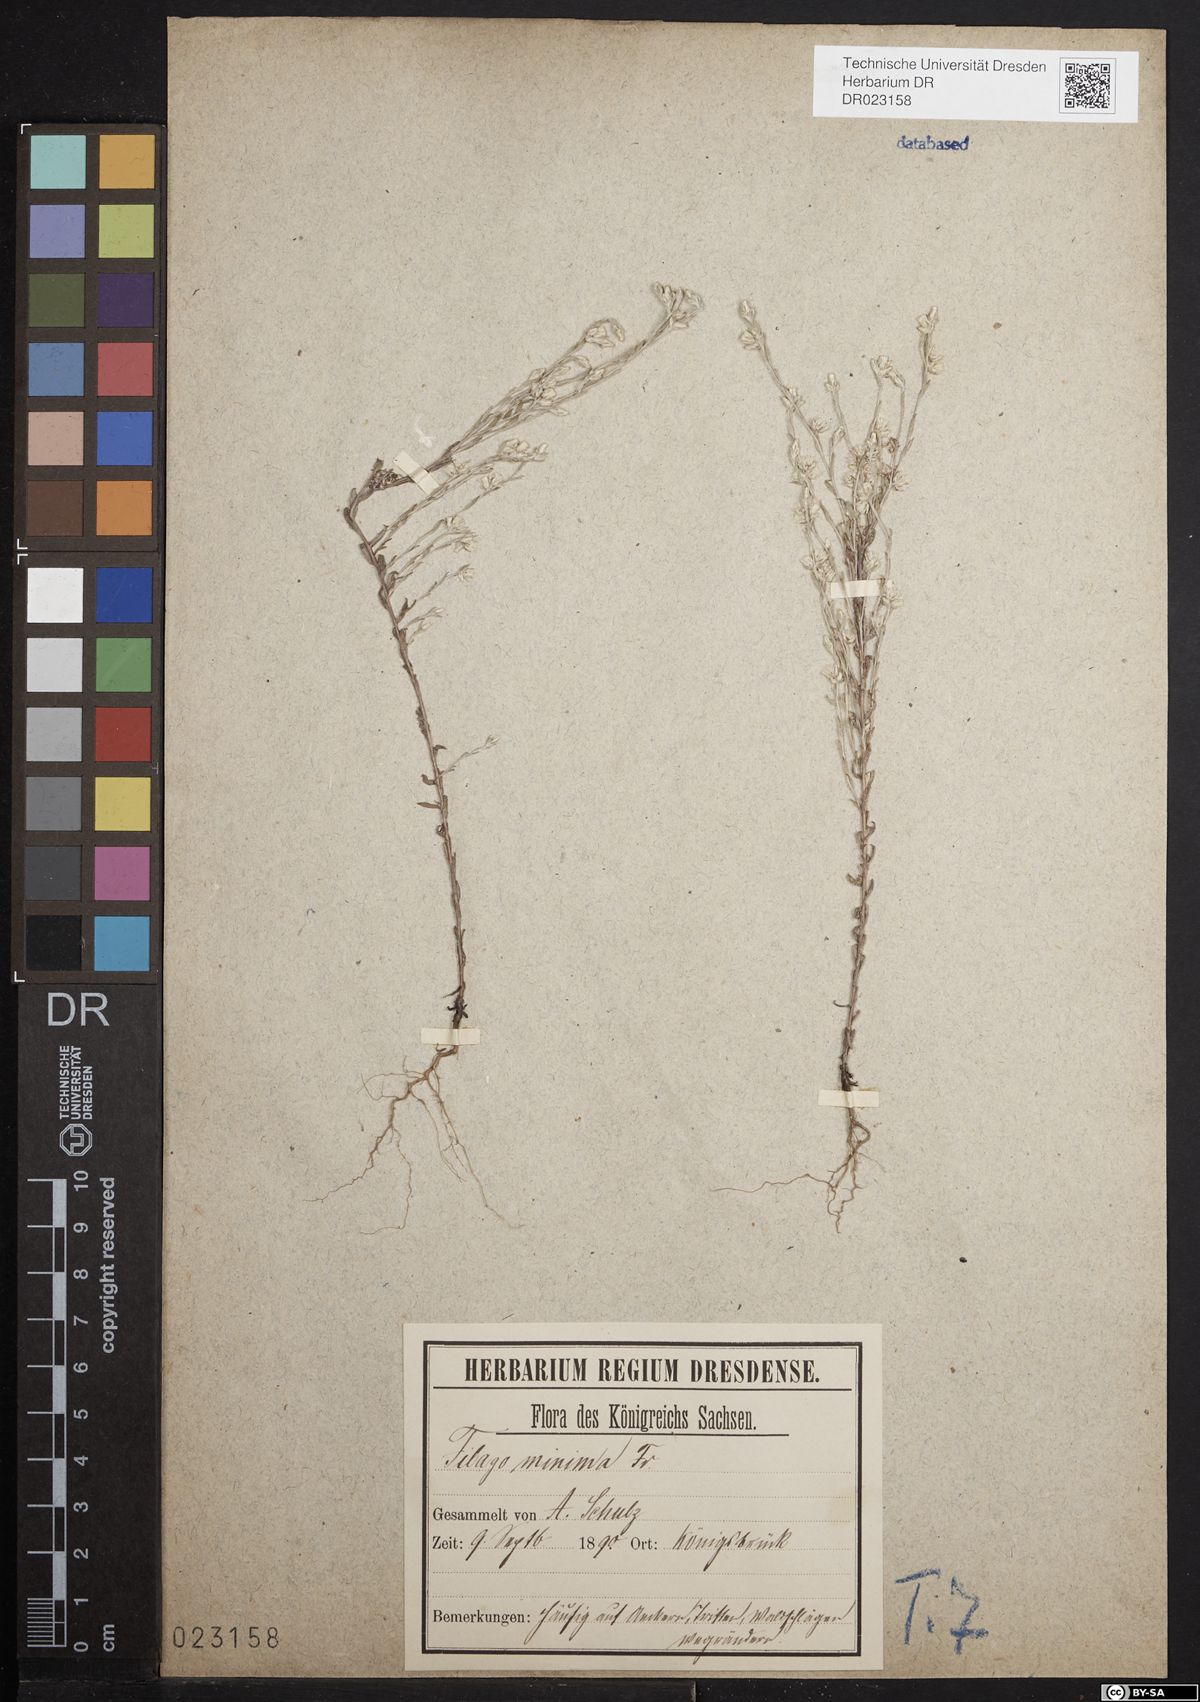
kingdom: Plantae
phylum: Tracheophyta
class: Magnoliopsida
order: Asterales
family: Asteraceae
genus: Logfia
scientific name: Logfia minima
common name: Little cottonrose
